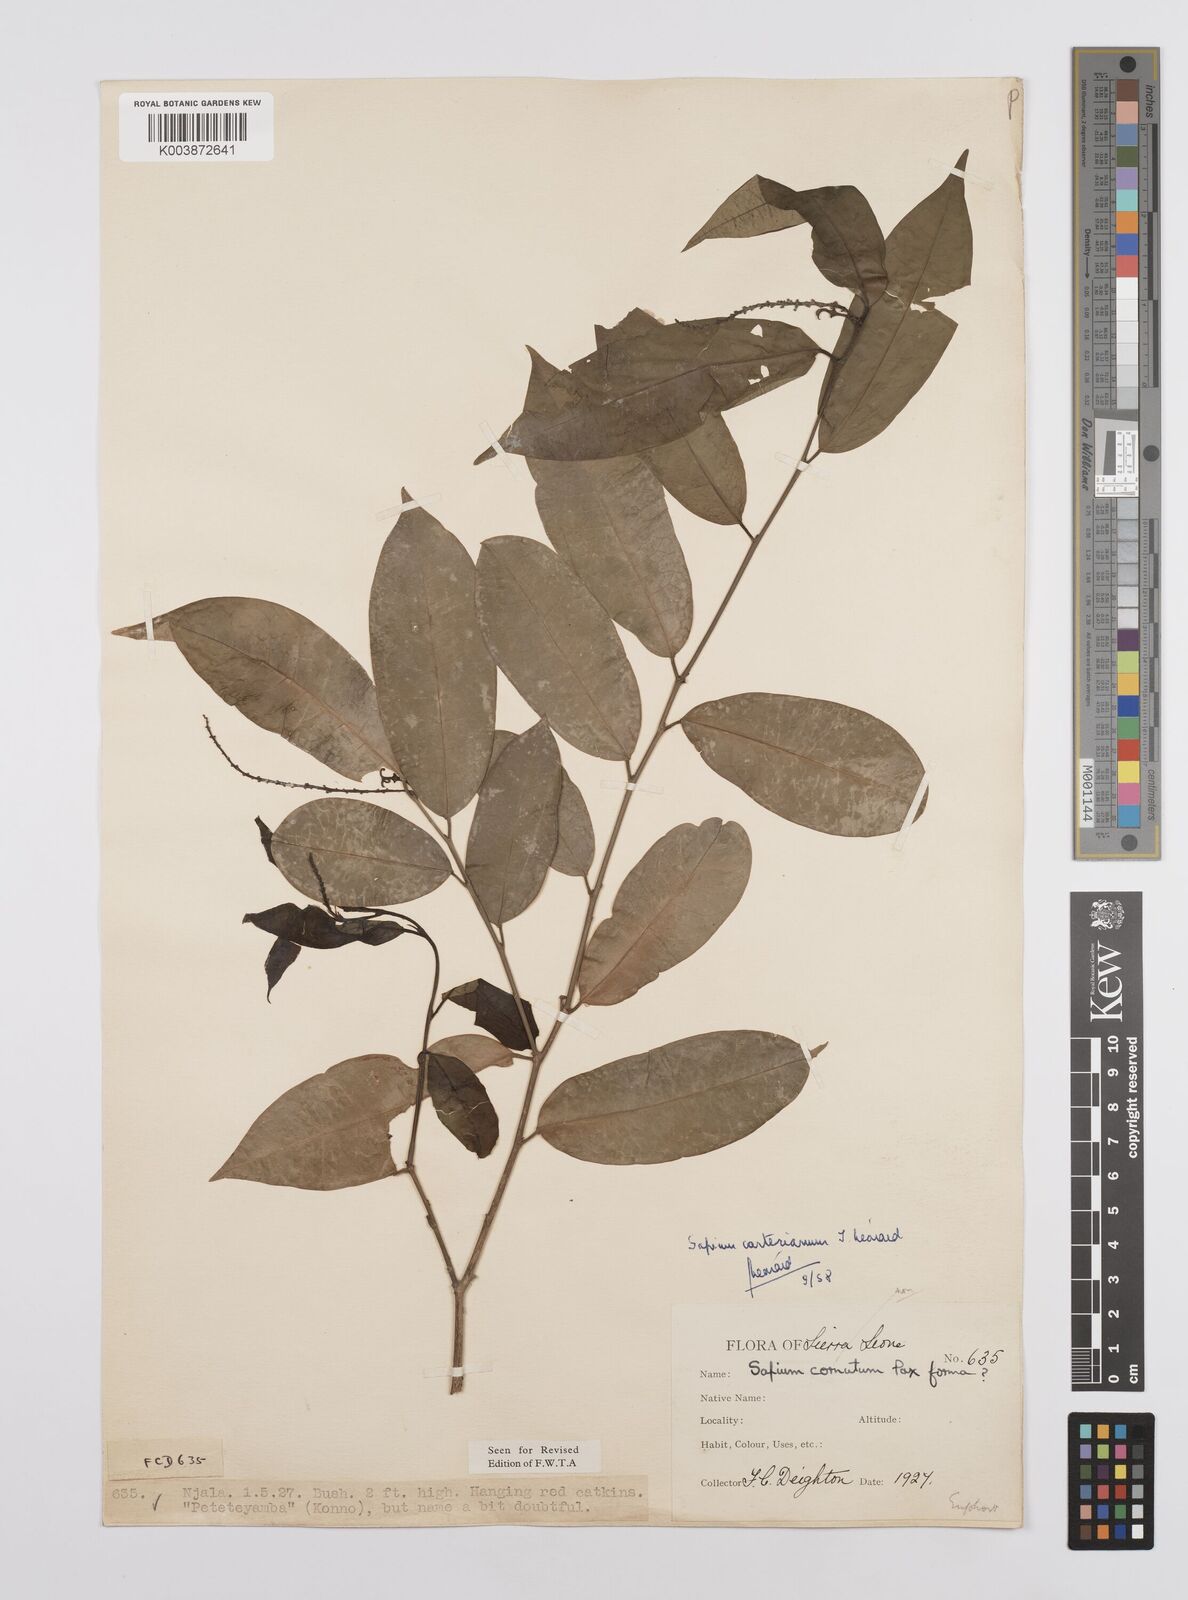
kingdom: Plantae
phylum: Tracheophyta
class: Magnoliopsida
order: Malpighiales
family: Euphorbiaceae
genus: Sclerocroton
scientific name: Sclerocroton carterianus
